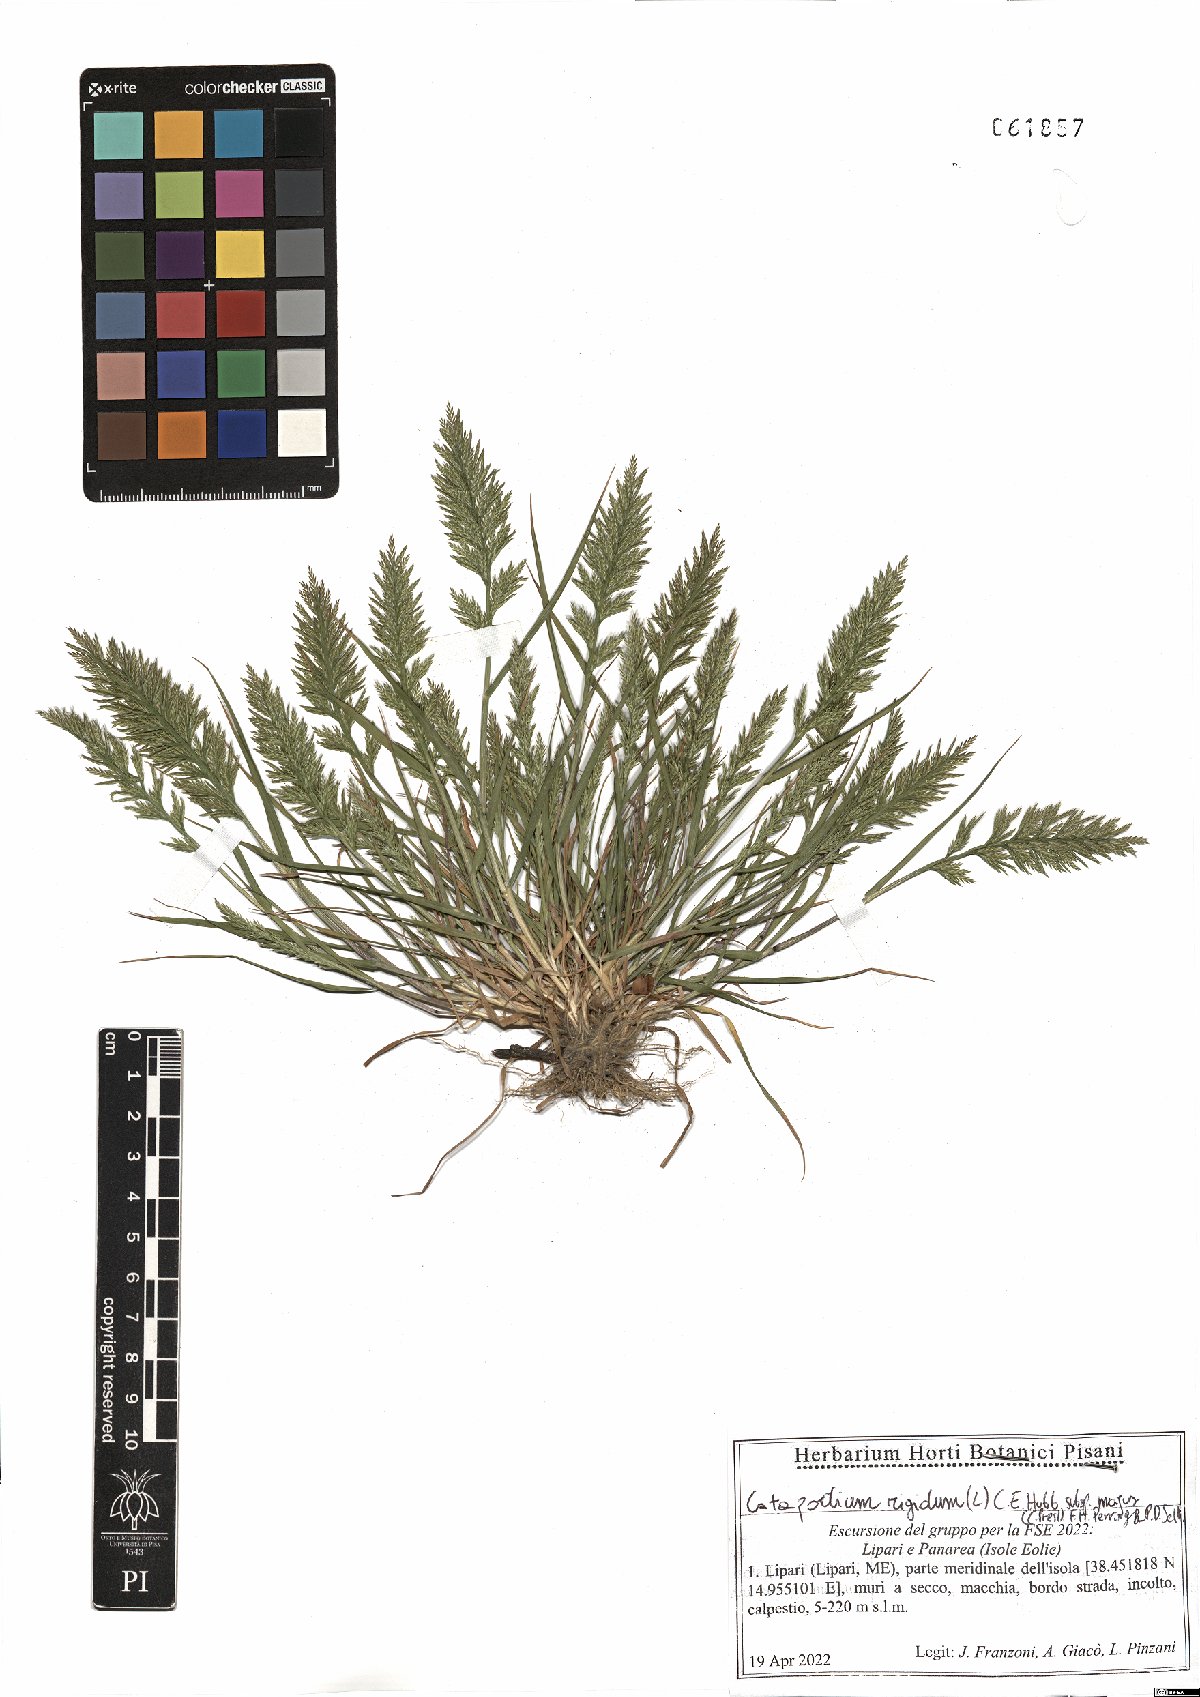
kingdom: Plantae
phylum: Tracheophyta
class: Liliopsida
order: Poales
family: Poaceae
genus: Catapodium
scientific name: Catapodium rigidum
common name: Fern-grass
